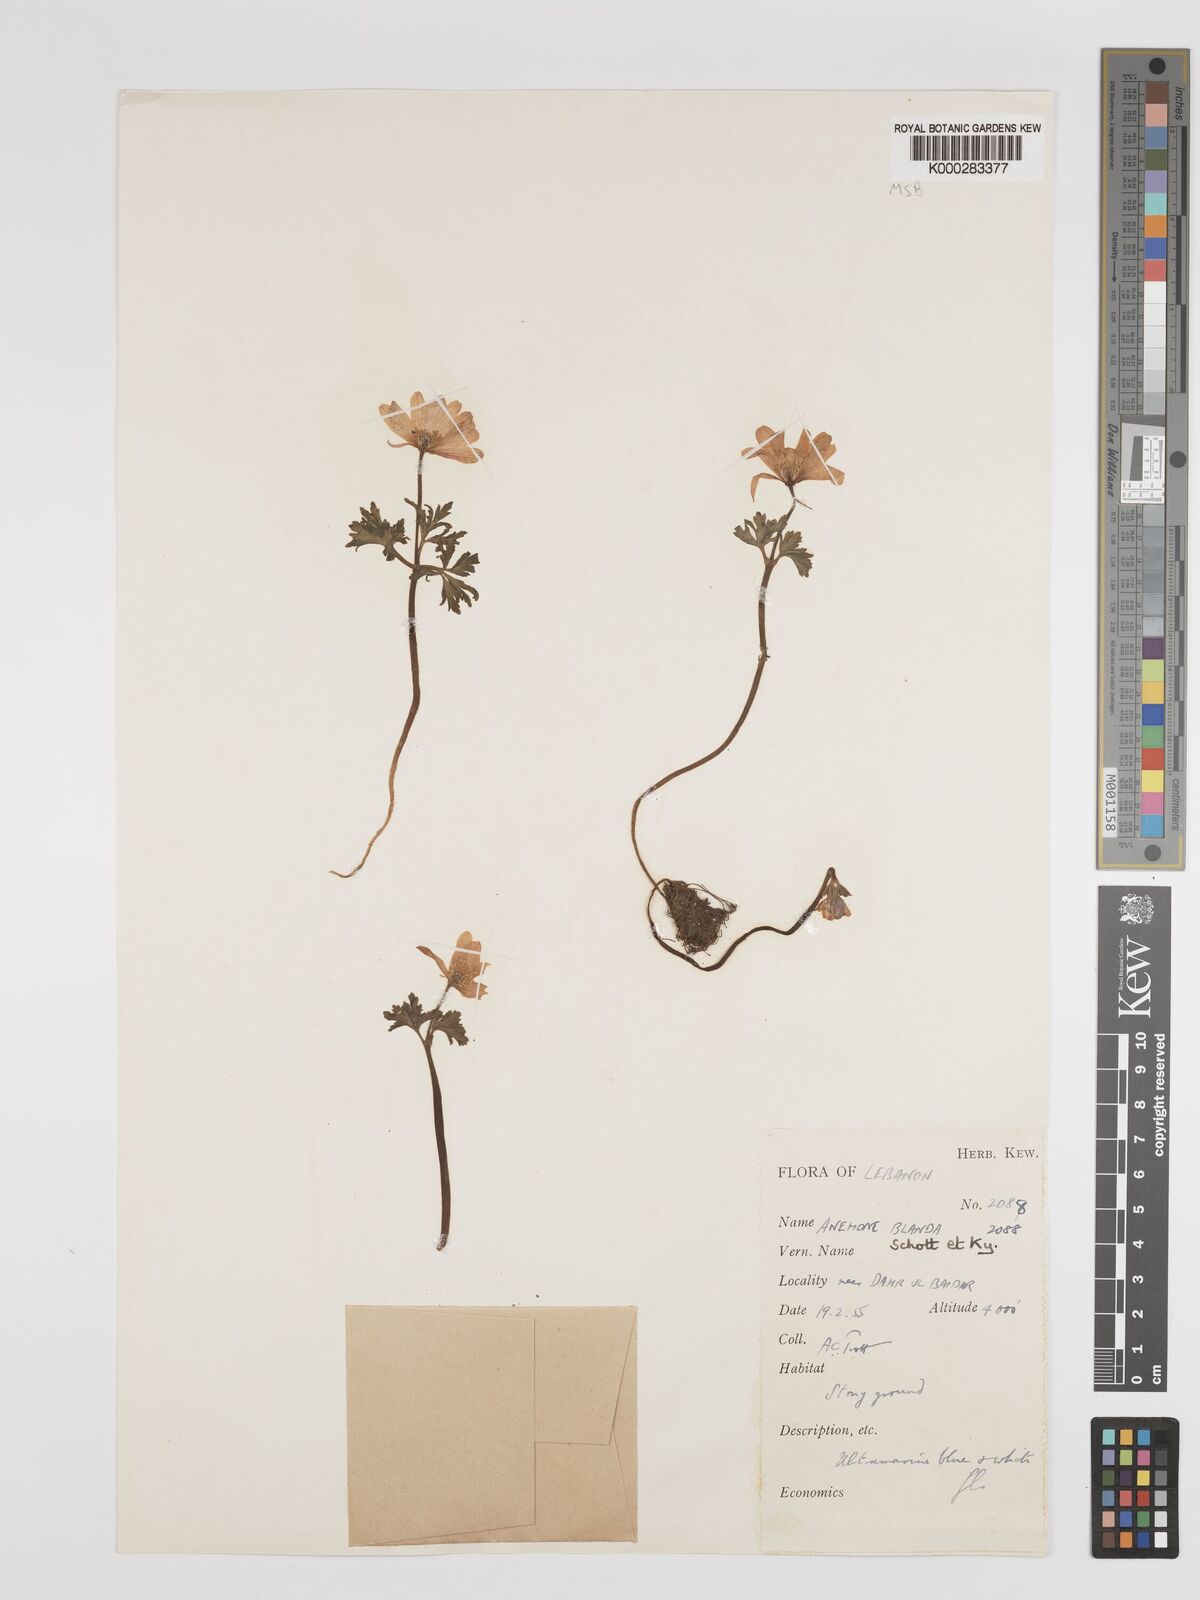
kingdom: Plantae
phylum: Tracheophyta
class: Magnoliopsida
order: Ranunculales
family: Ranunculaceae
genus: Anemone
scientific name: Anemone blanda
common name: Balkan anemone
